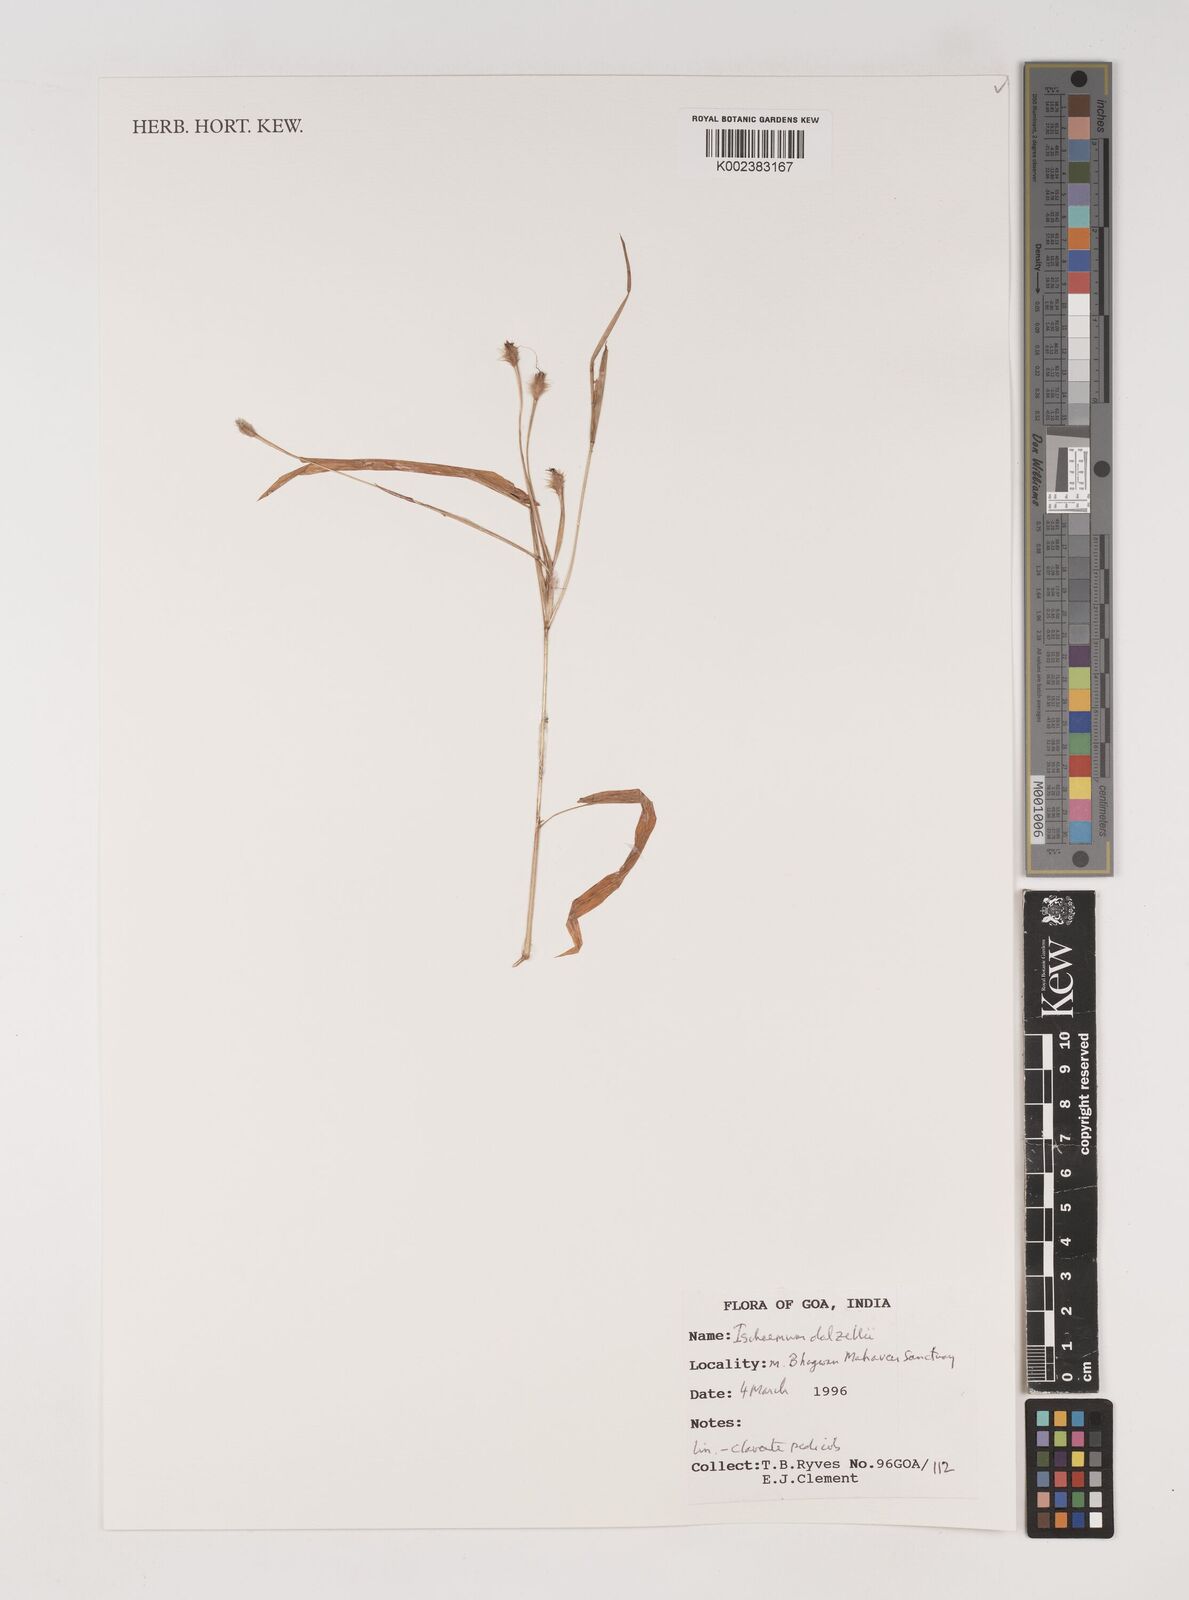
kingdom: Plantae
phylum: Tracheophyta
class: Liliopsida
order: Poales
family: Poaceae
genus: Ischaemum
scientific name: Ischaemum dalzellii
